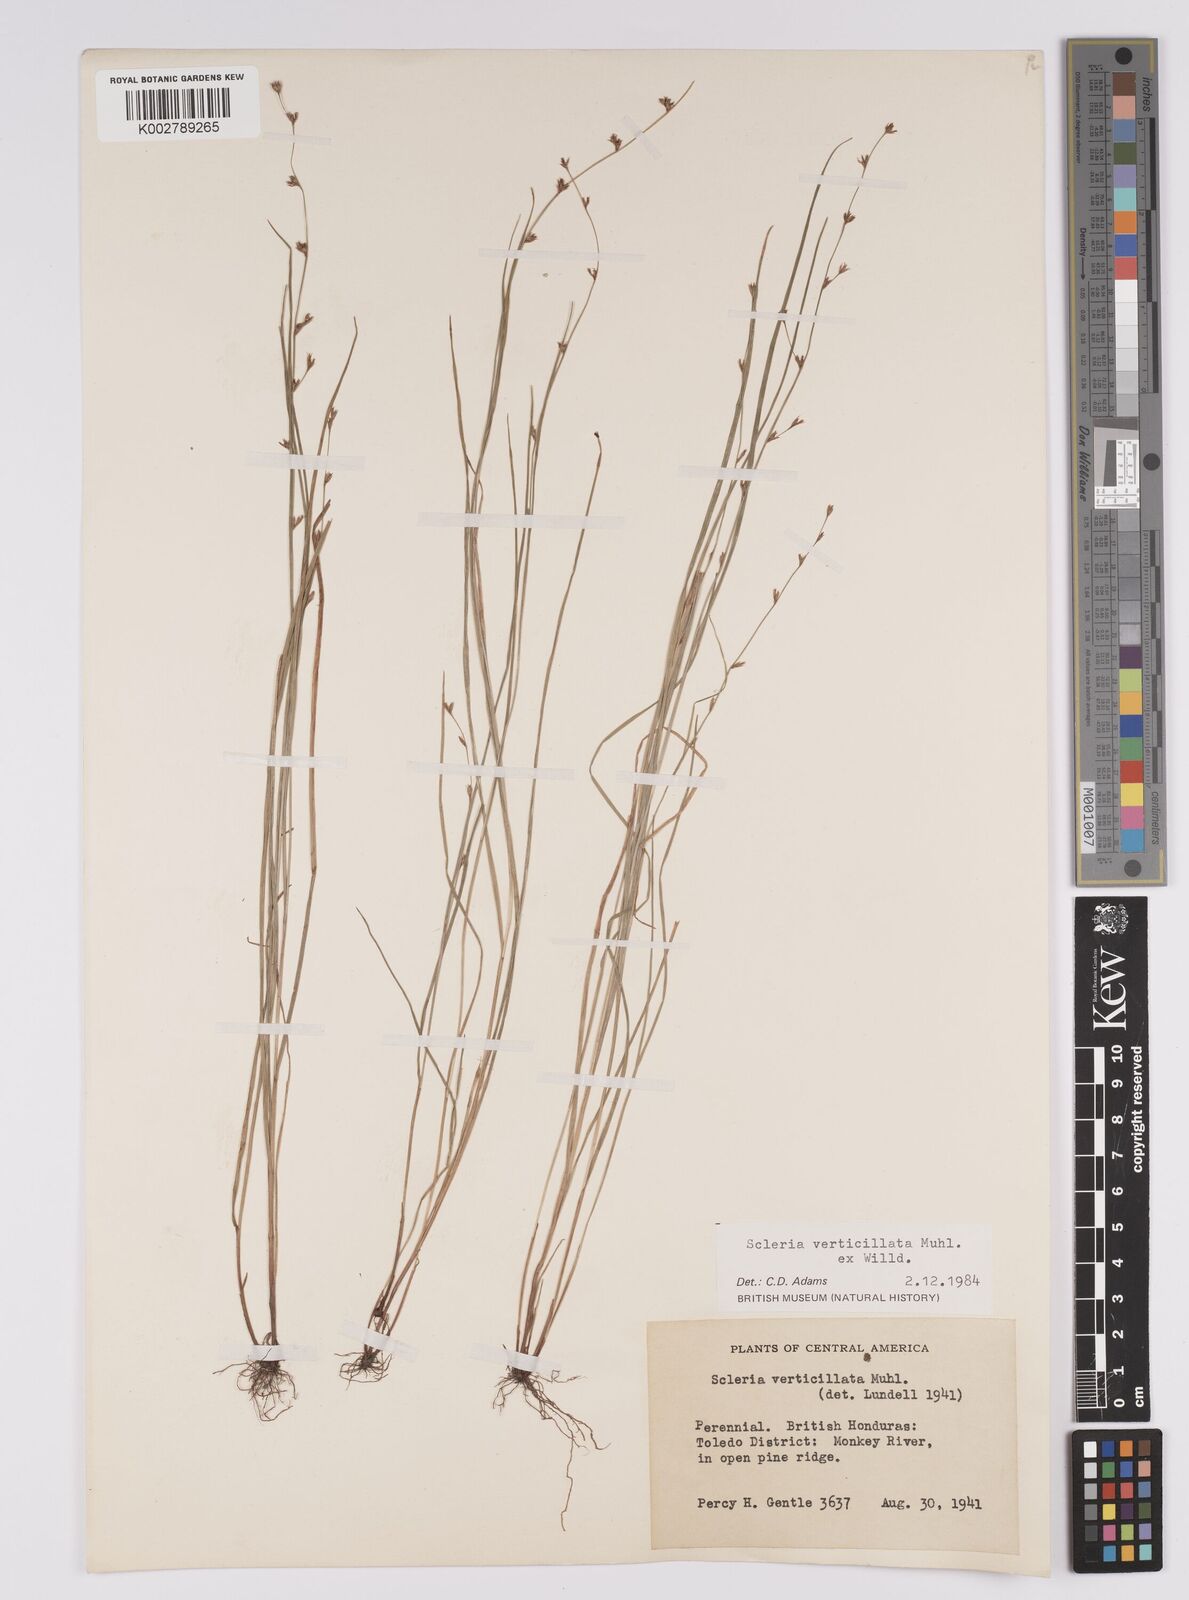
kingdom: Plantae
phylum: Tracheophyta
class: Liliopsida
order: Poales
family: Cyperaceae
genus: Scleria
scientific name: Scleria verticillata
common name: Low nutrush
